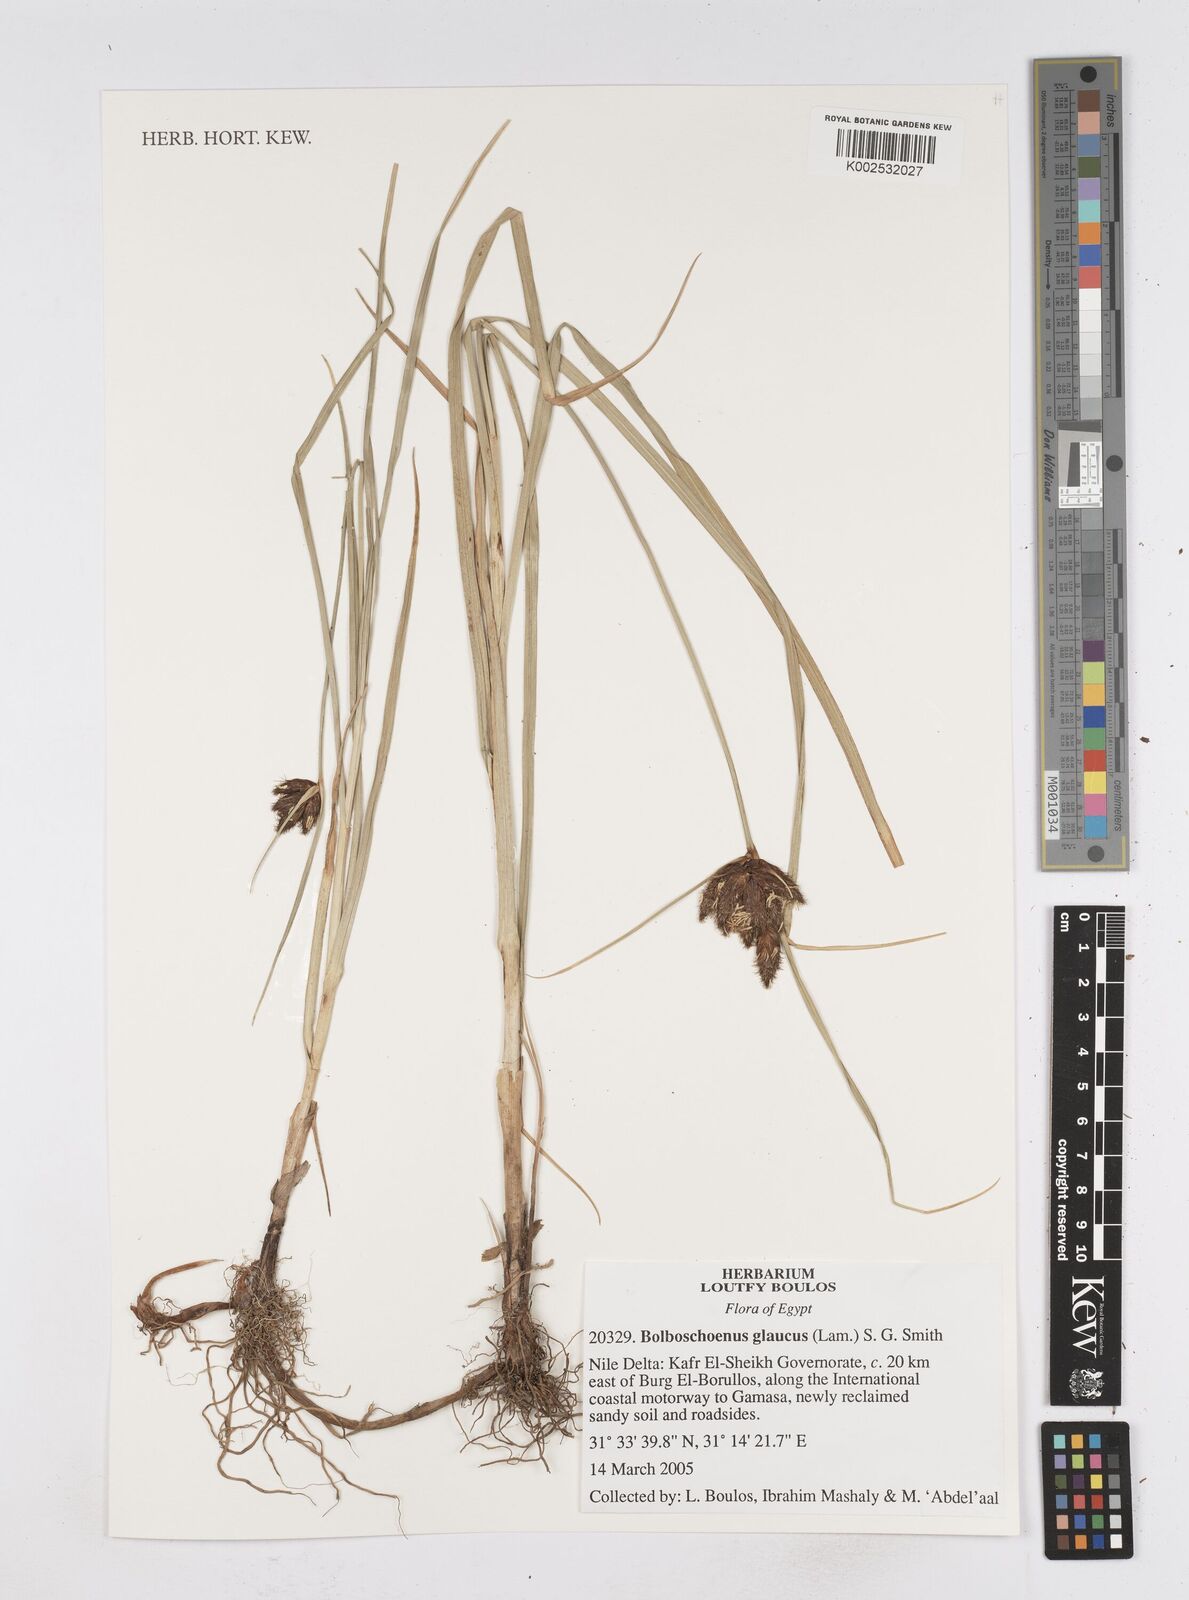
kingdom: Plantae
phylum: Tracheophyta
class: Liliopsida
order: Poales
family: Cyperaceae
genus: Bolboschoenus
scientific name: Bolboschoenus glaucus
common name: Tuberous bulrush
